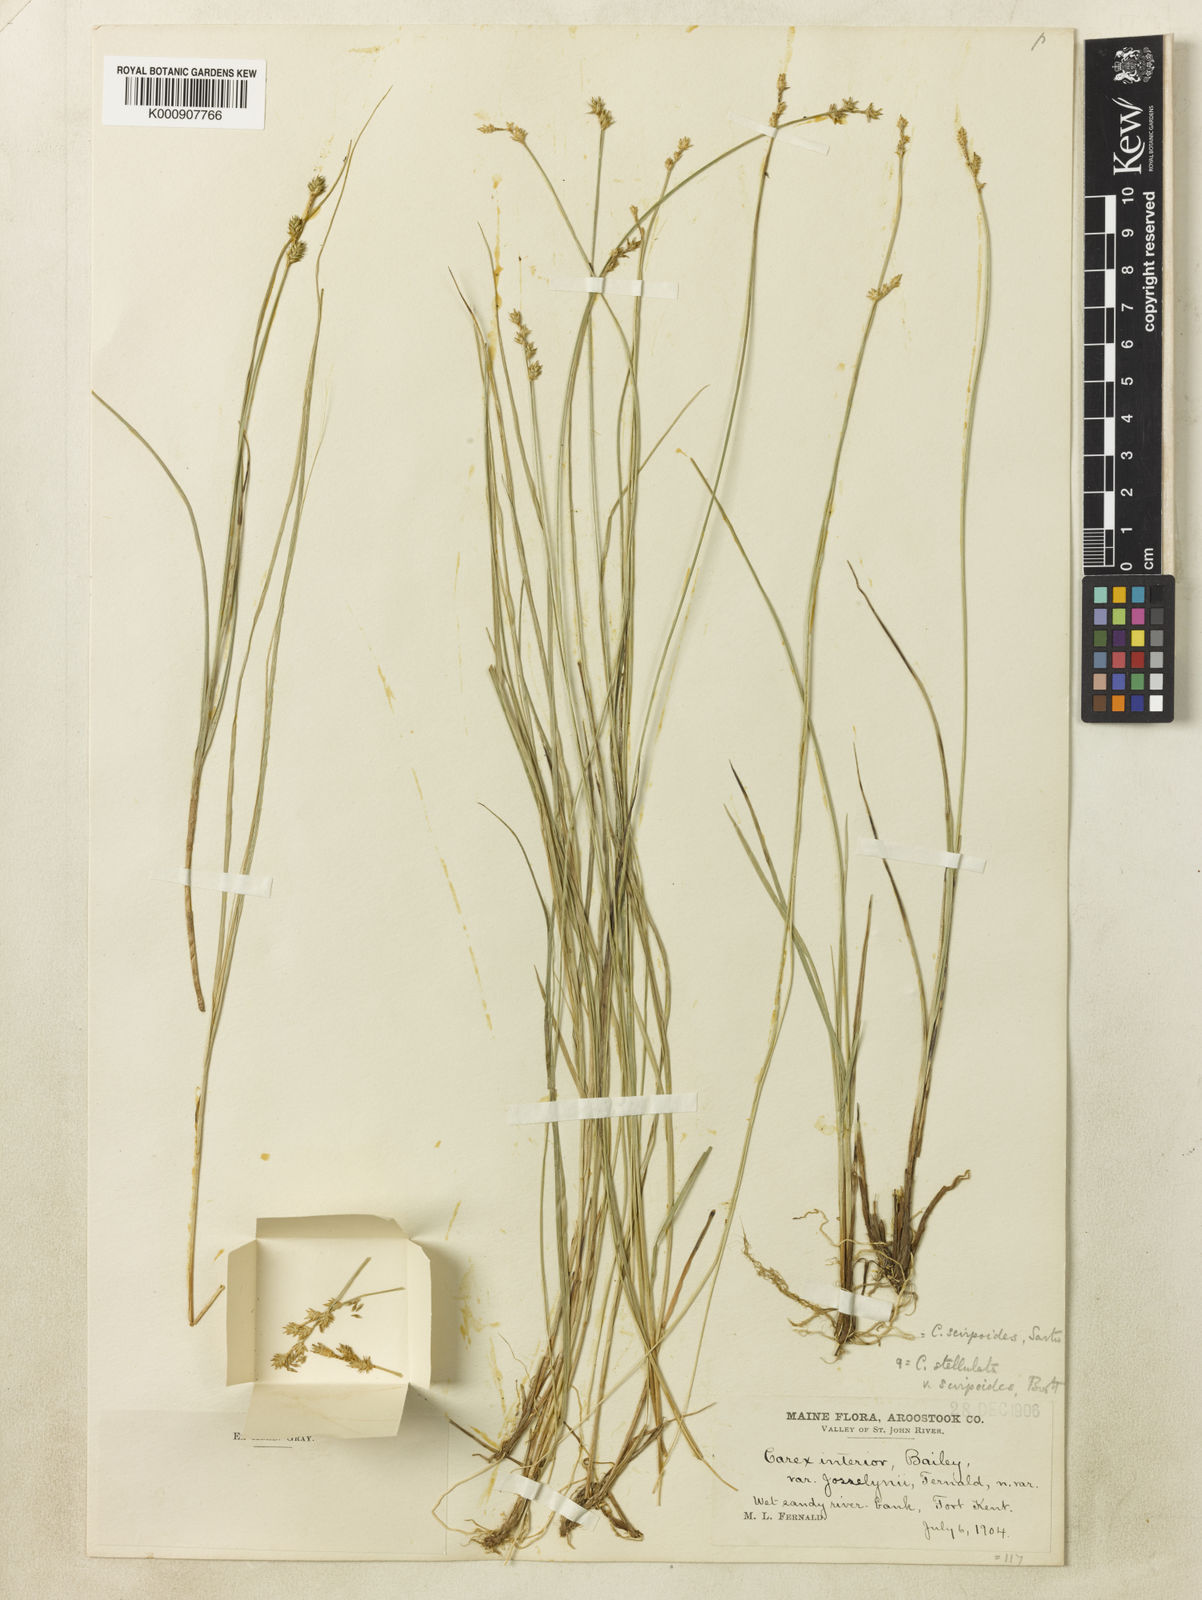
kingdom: Plantae
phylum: Tracheophyta
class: Liliopsida
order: Poales
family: Cyperaceae
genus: Carex
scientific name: Carex echinata
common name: Star sedge
